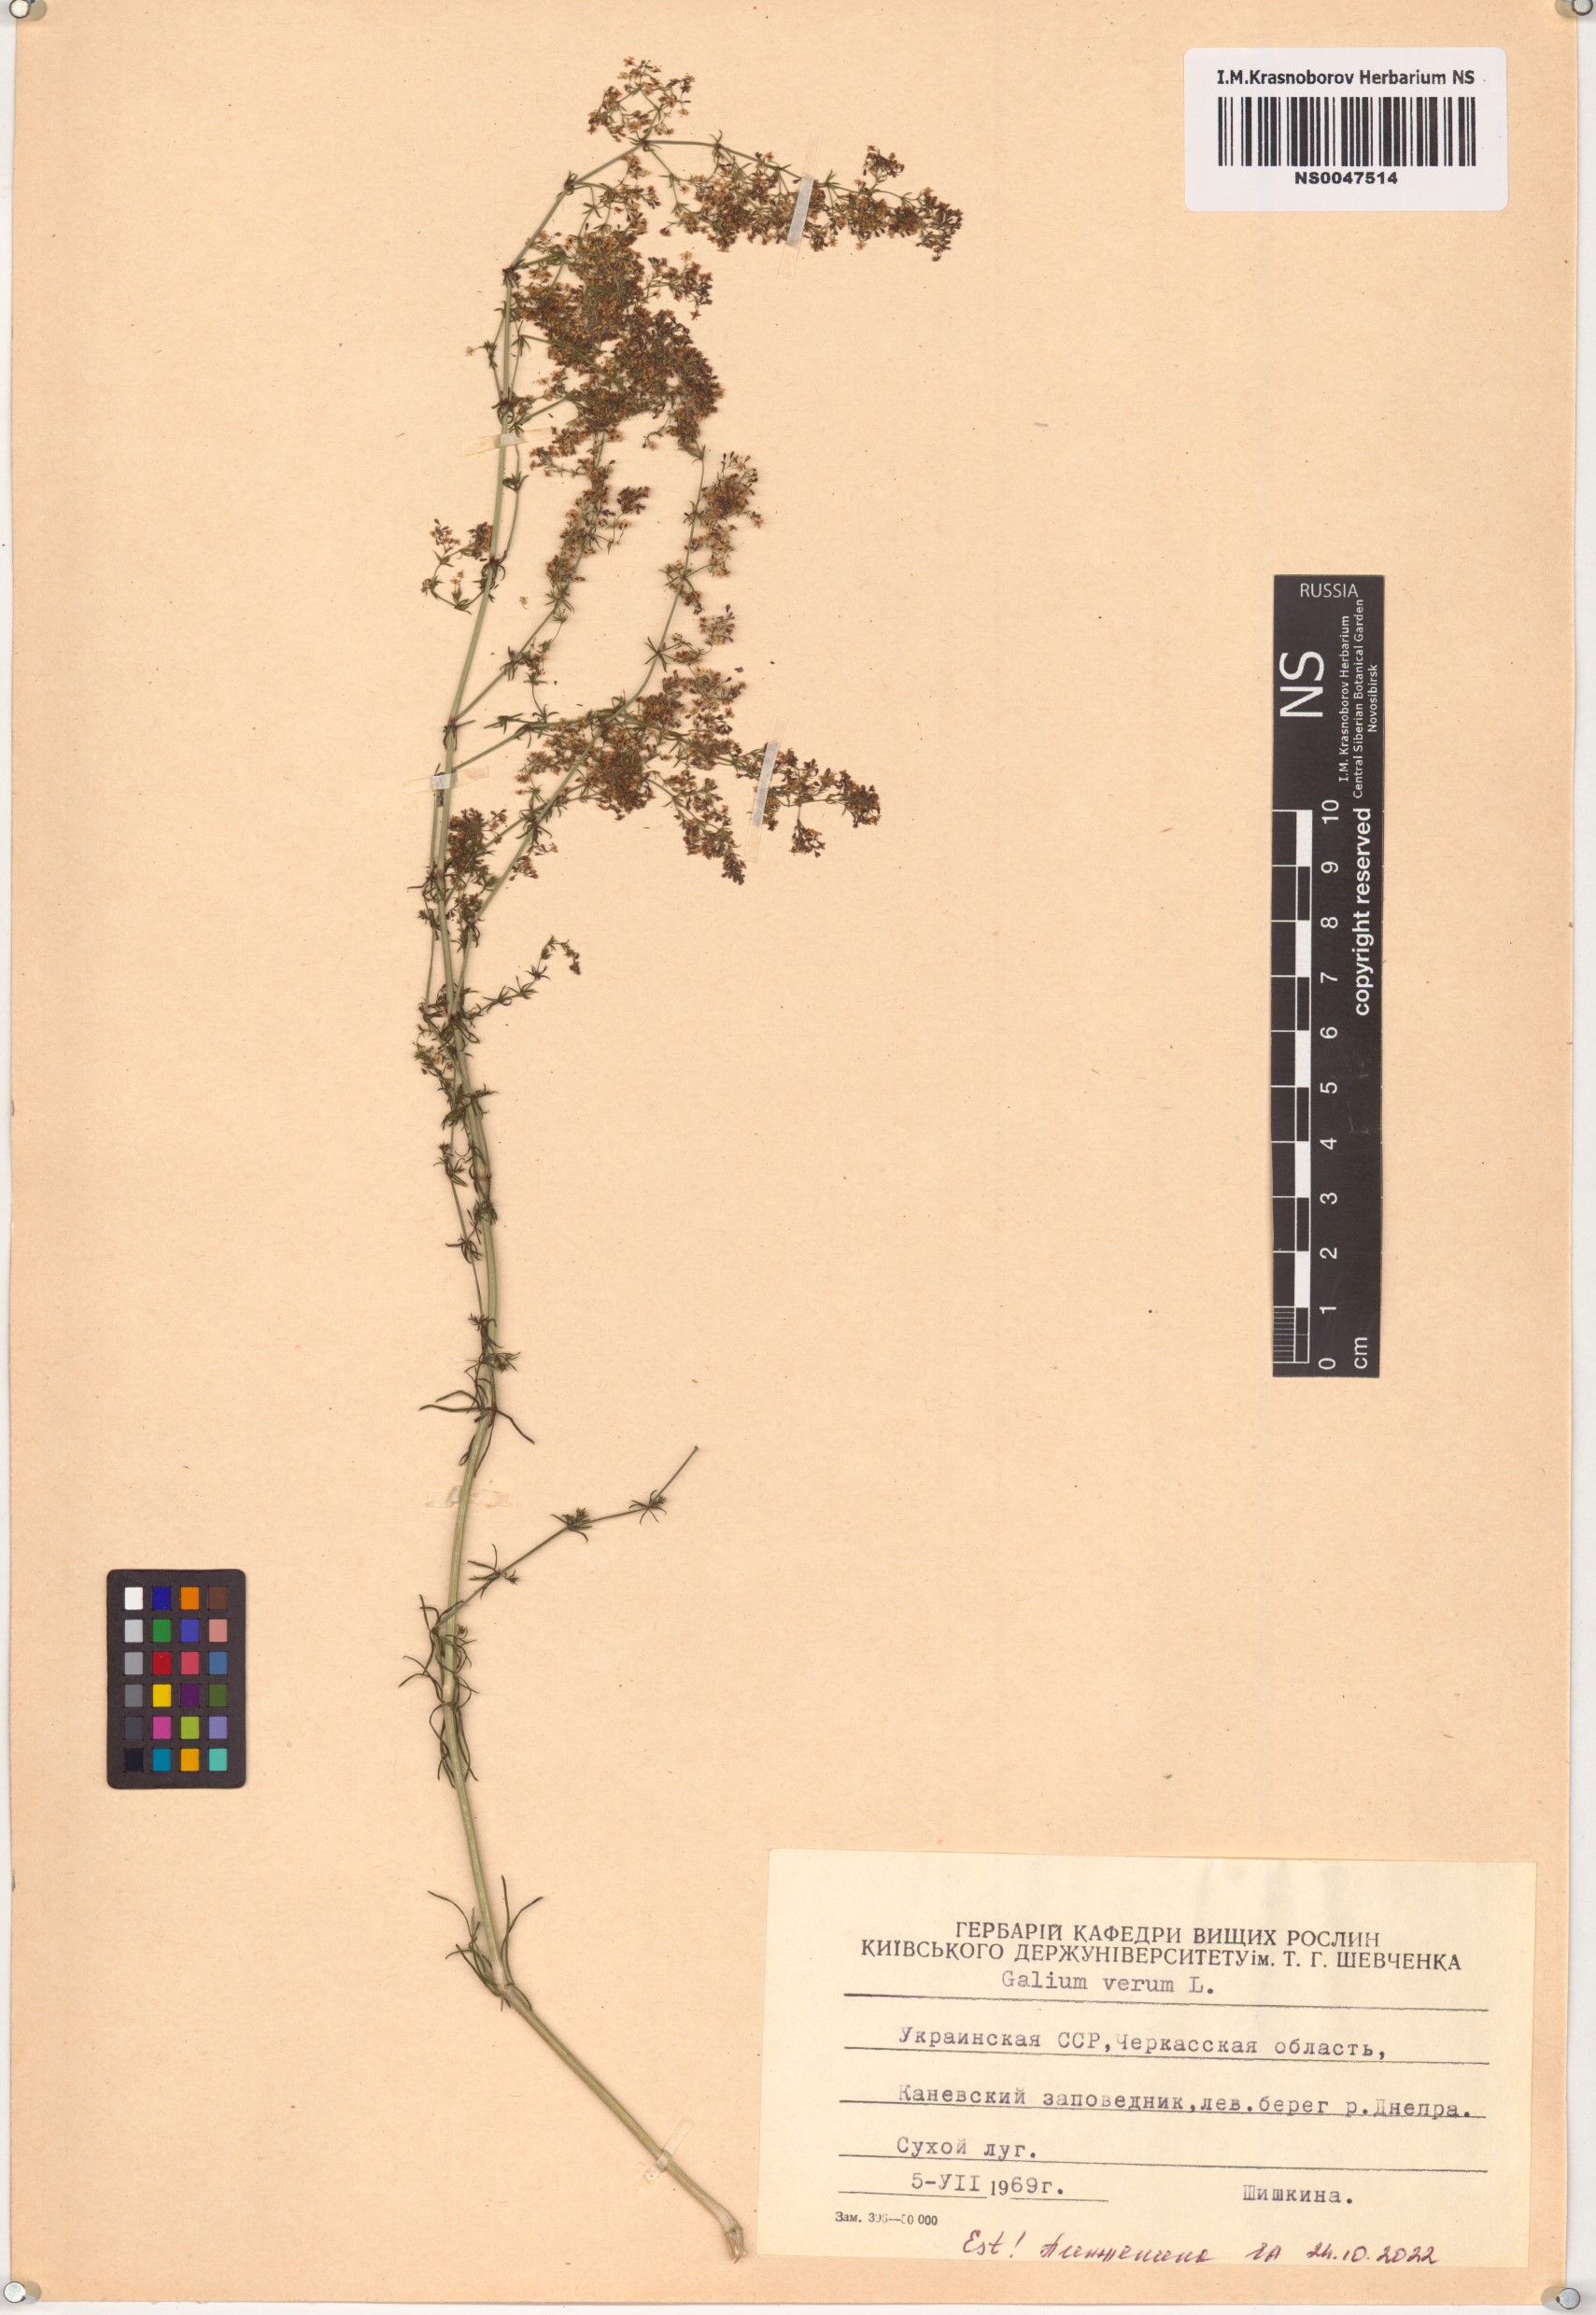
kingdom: Plantae
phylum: Tracheophyta
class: Magnoliopsida
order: Gentianales
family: Rubiaceae
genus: Galium
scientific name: Galium verum
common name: Lady's bedstraw
